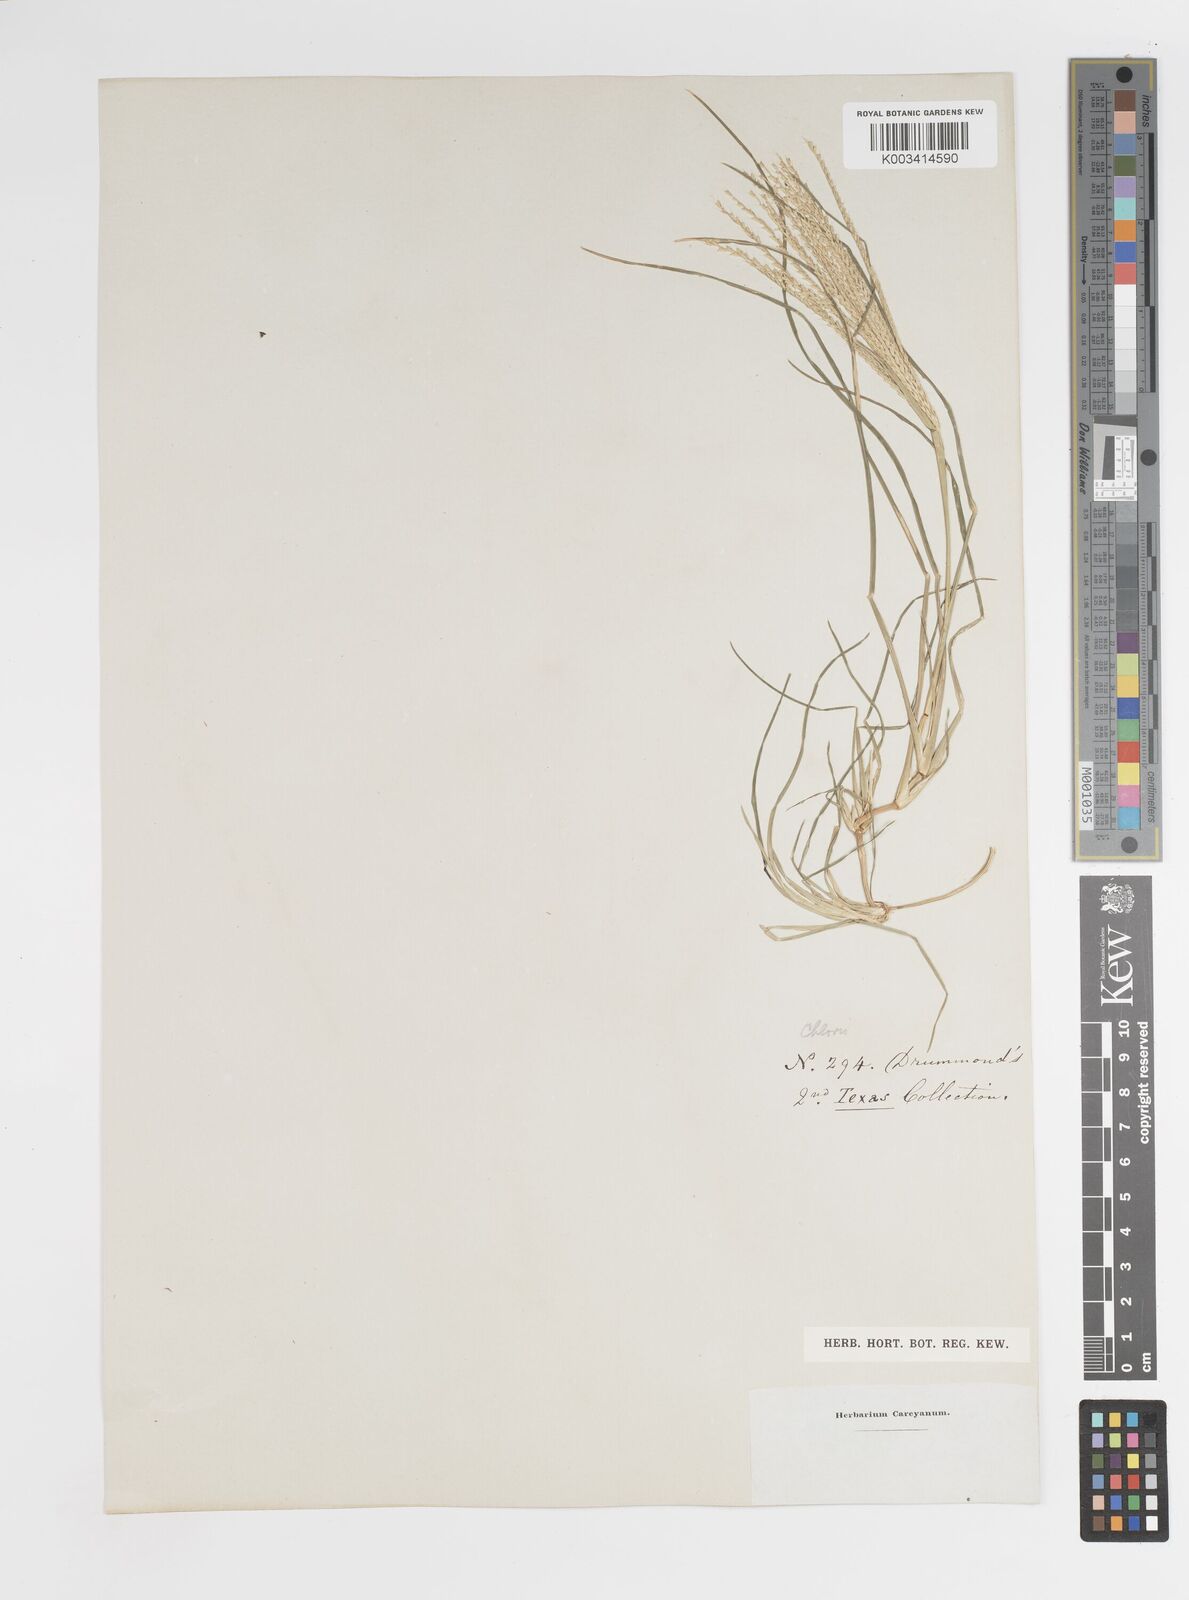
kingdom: Plantae
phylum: Tracheophyta
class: Liliopsida
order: Poales
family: Poaceae
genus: Chloris
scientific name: Chloris subdolichostachya
